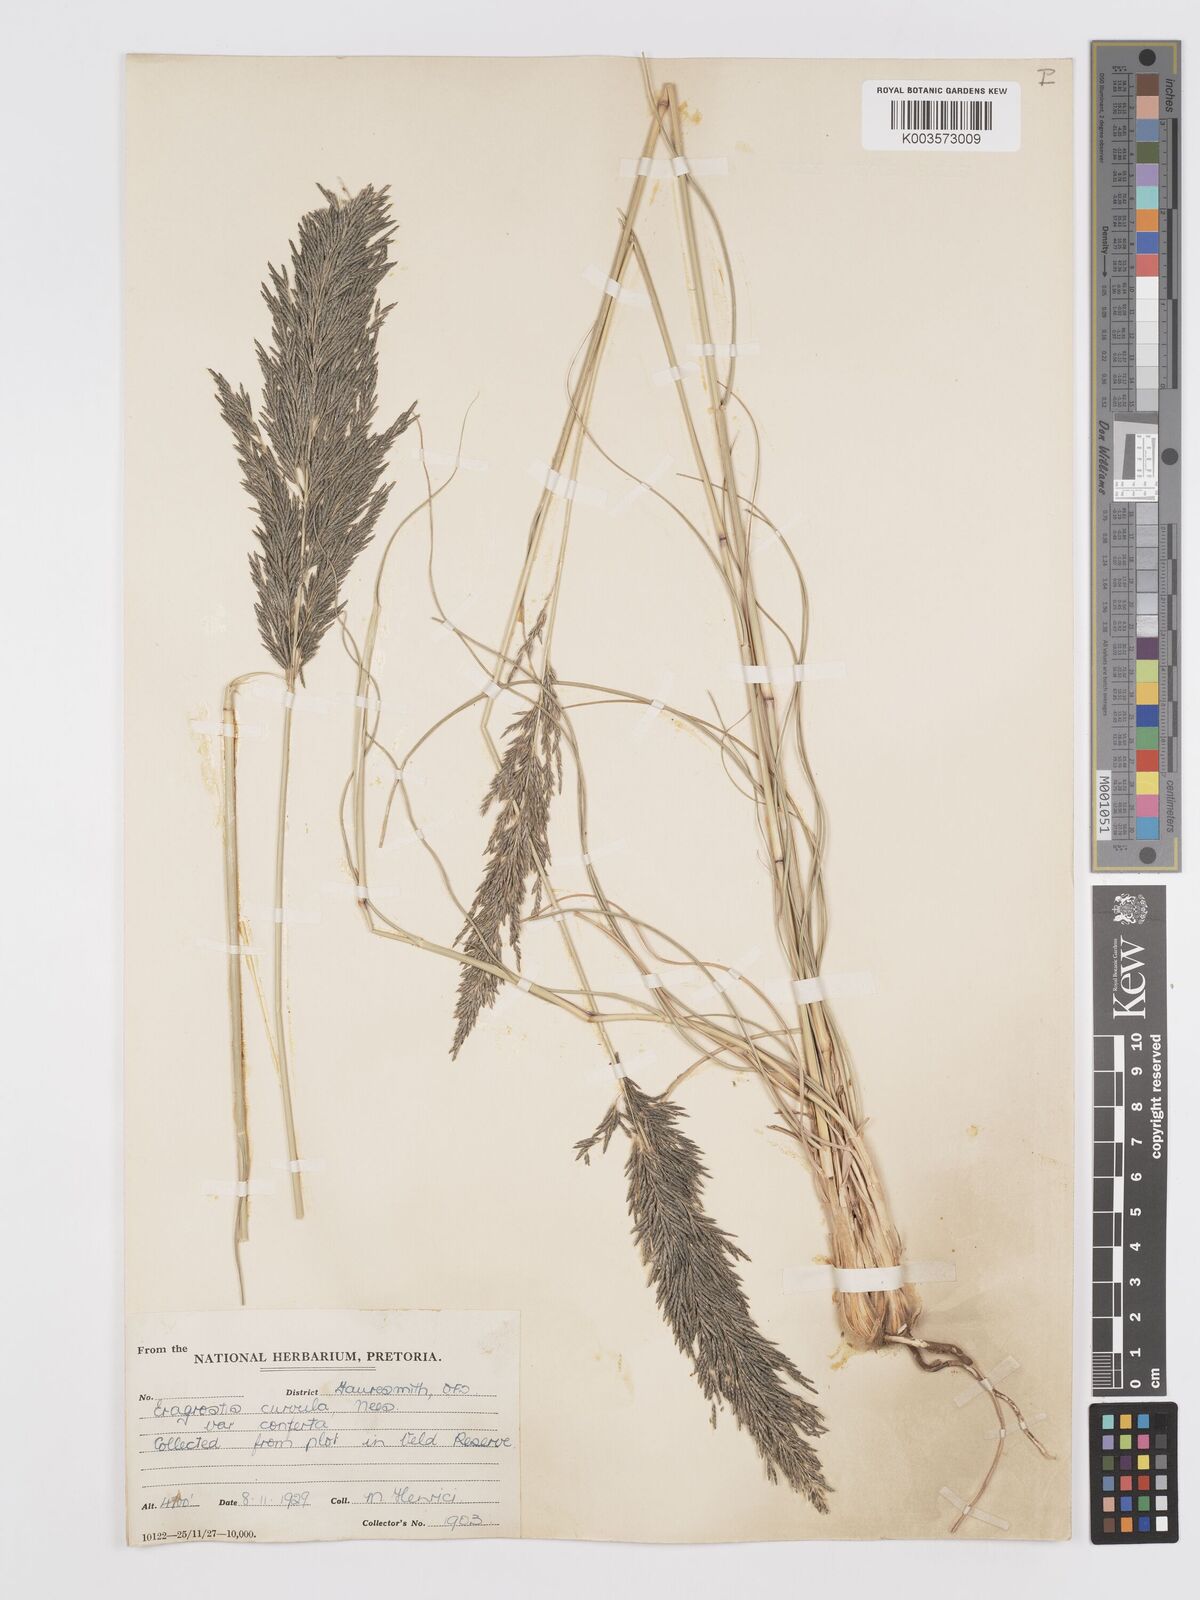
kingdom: Plantae
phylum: Tracheophyta
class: Liliopsida
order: Poales
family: Poaceae
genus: Eragrostis
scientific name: Eragrostis curvula
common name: African love-grass
